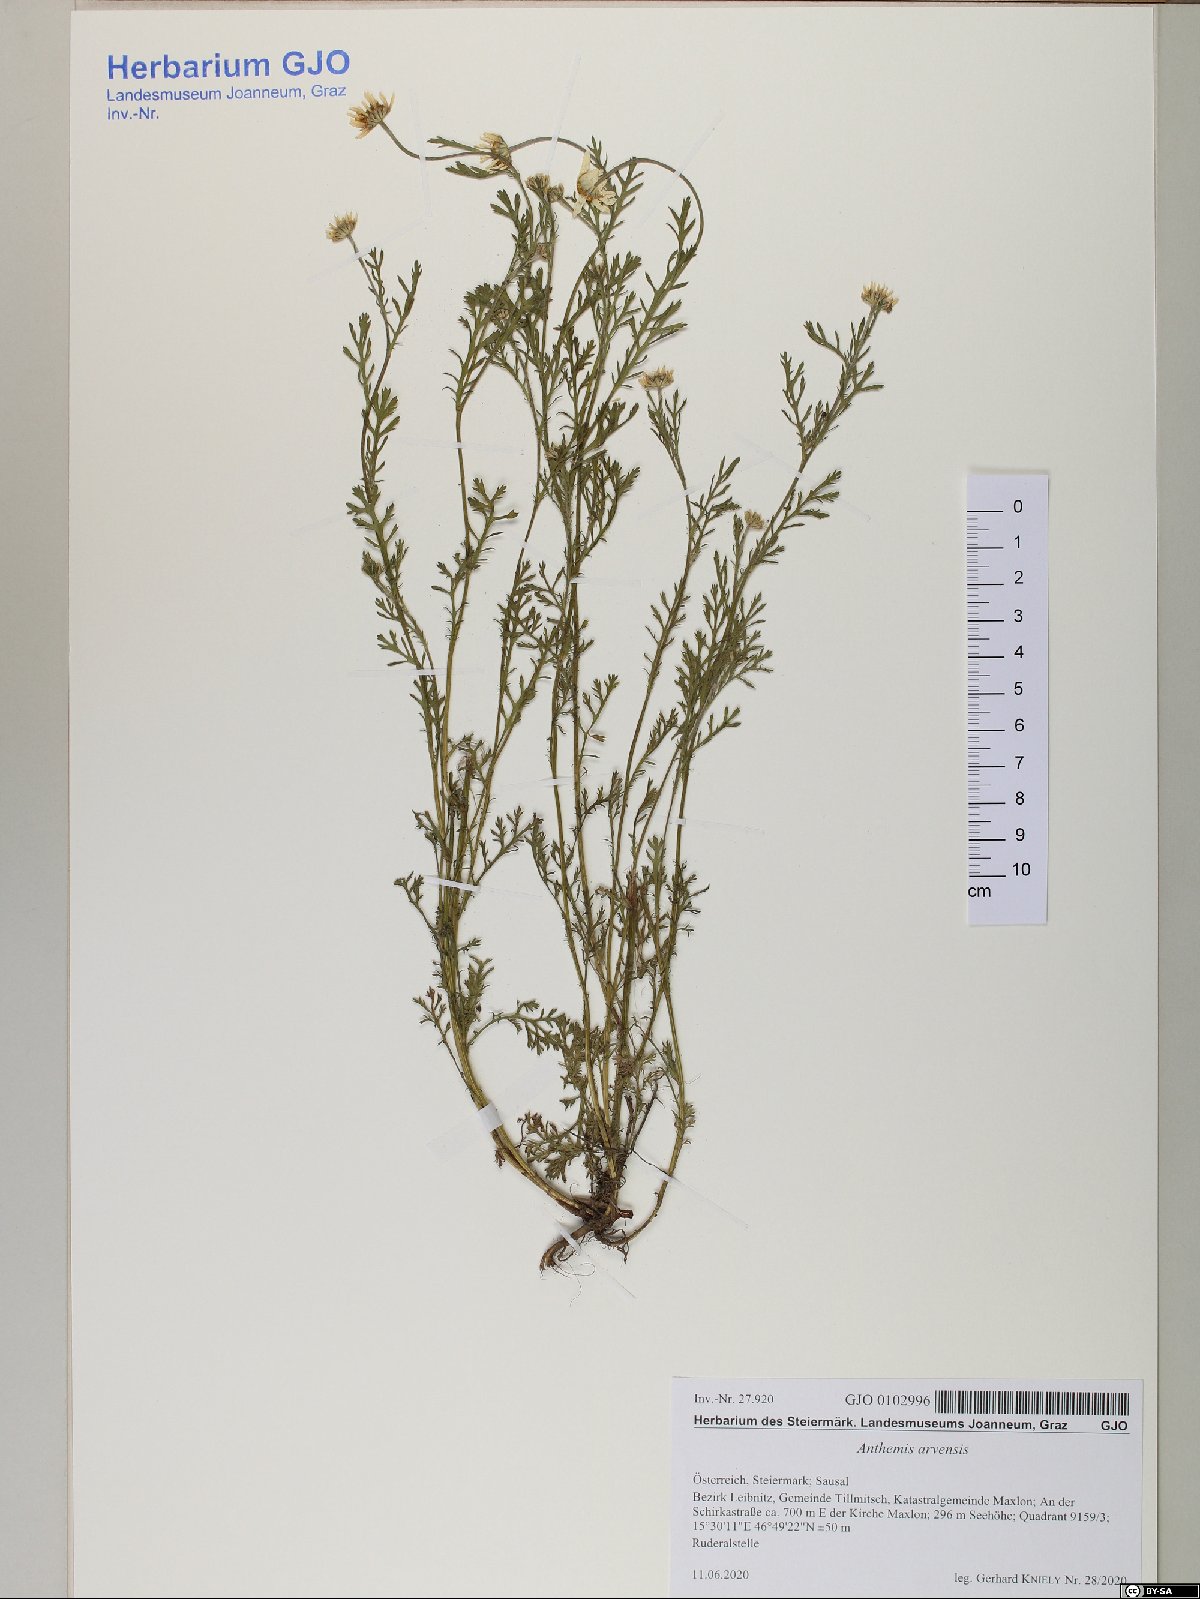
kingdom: Plantae
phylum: Tracheophyta
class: Magnoliopsida
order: Asterales
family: Asteraceae
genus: Anthemis
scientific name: Anthemis arvensis
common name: Corn chamomile
